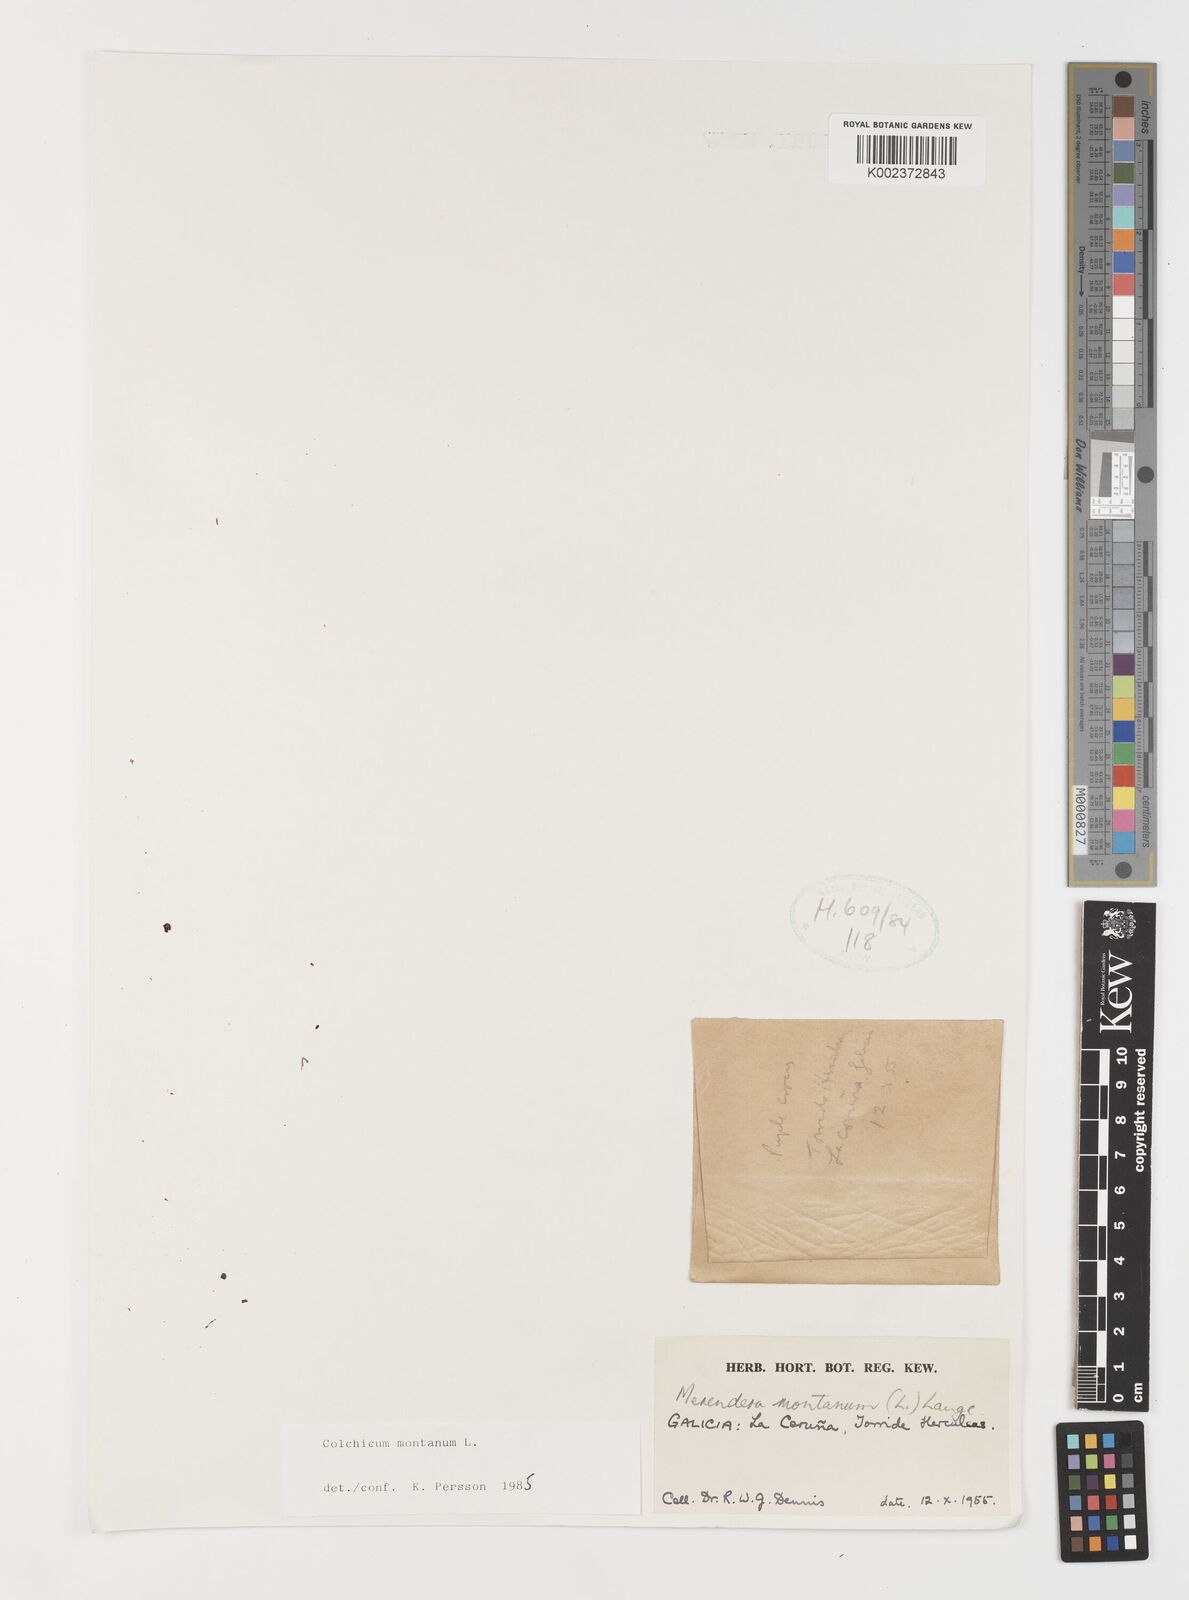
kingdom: Plantae
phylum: Tracheophyta
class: Liliopsida
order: Liliales
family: Colchicaceae
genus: Colchicum
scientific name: Colchicum montanum
